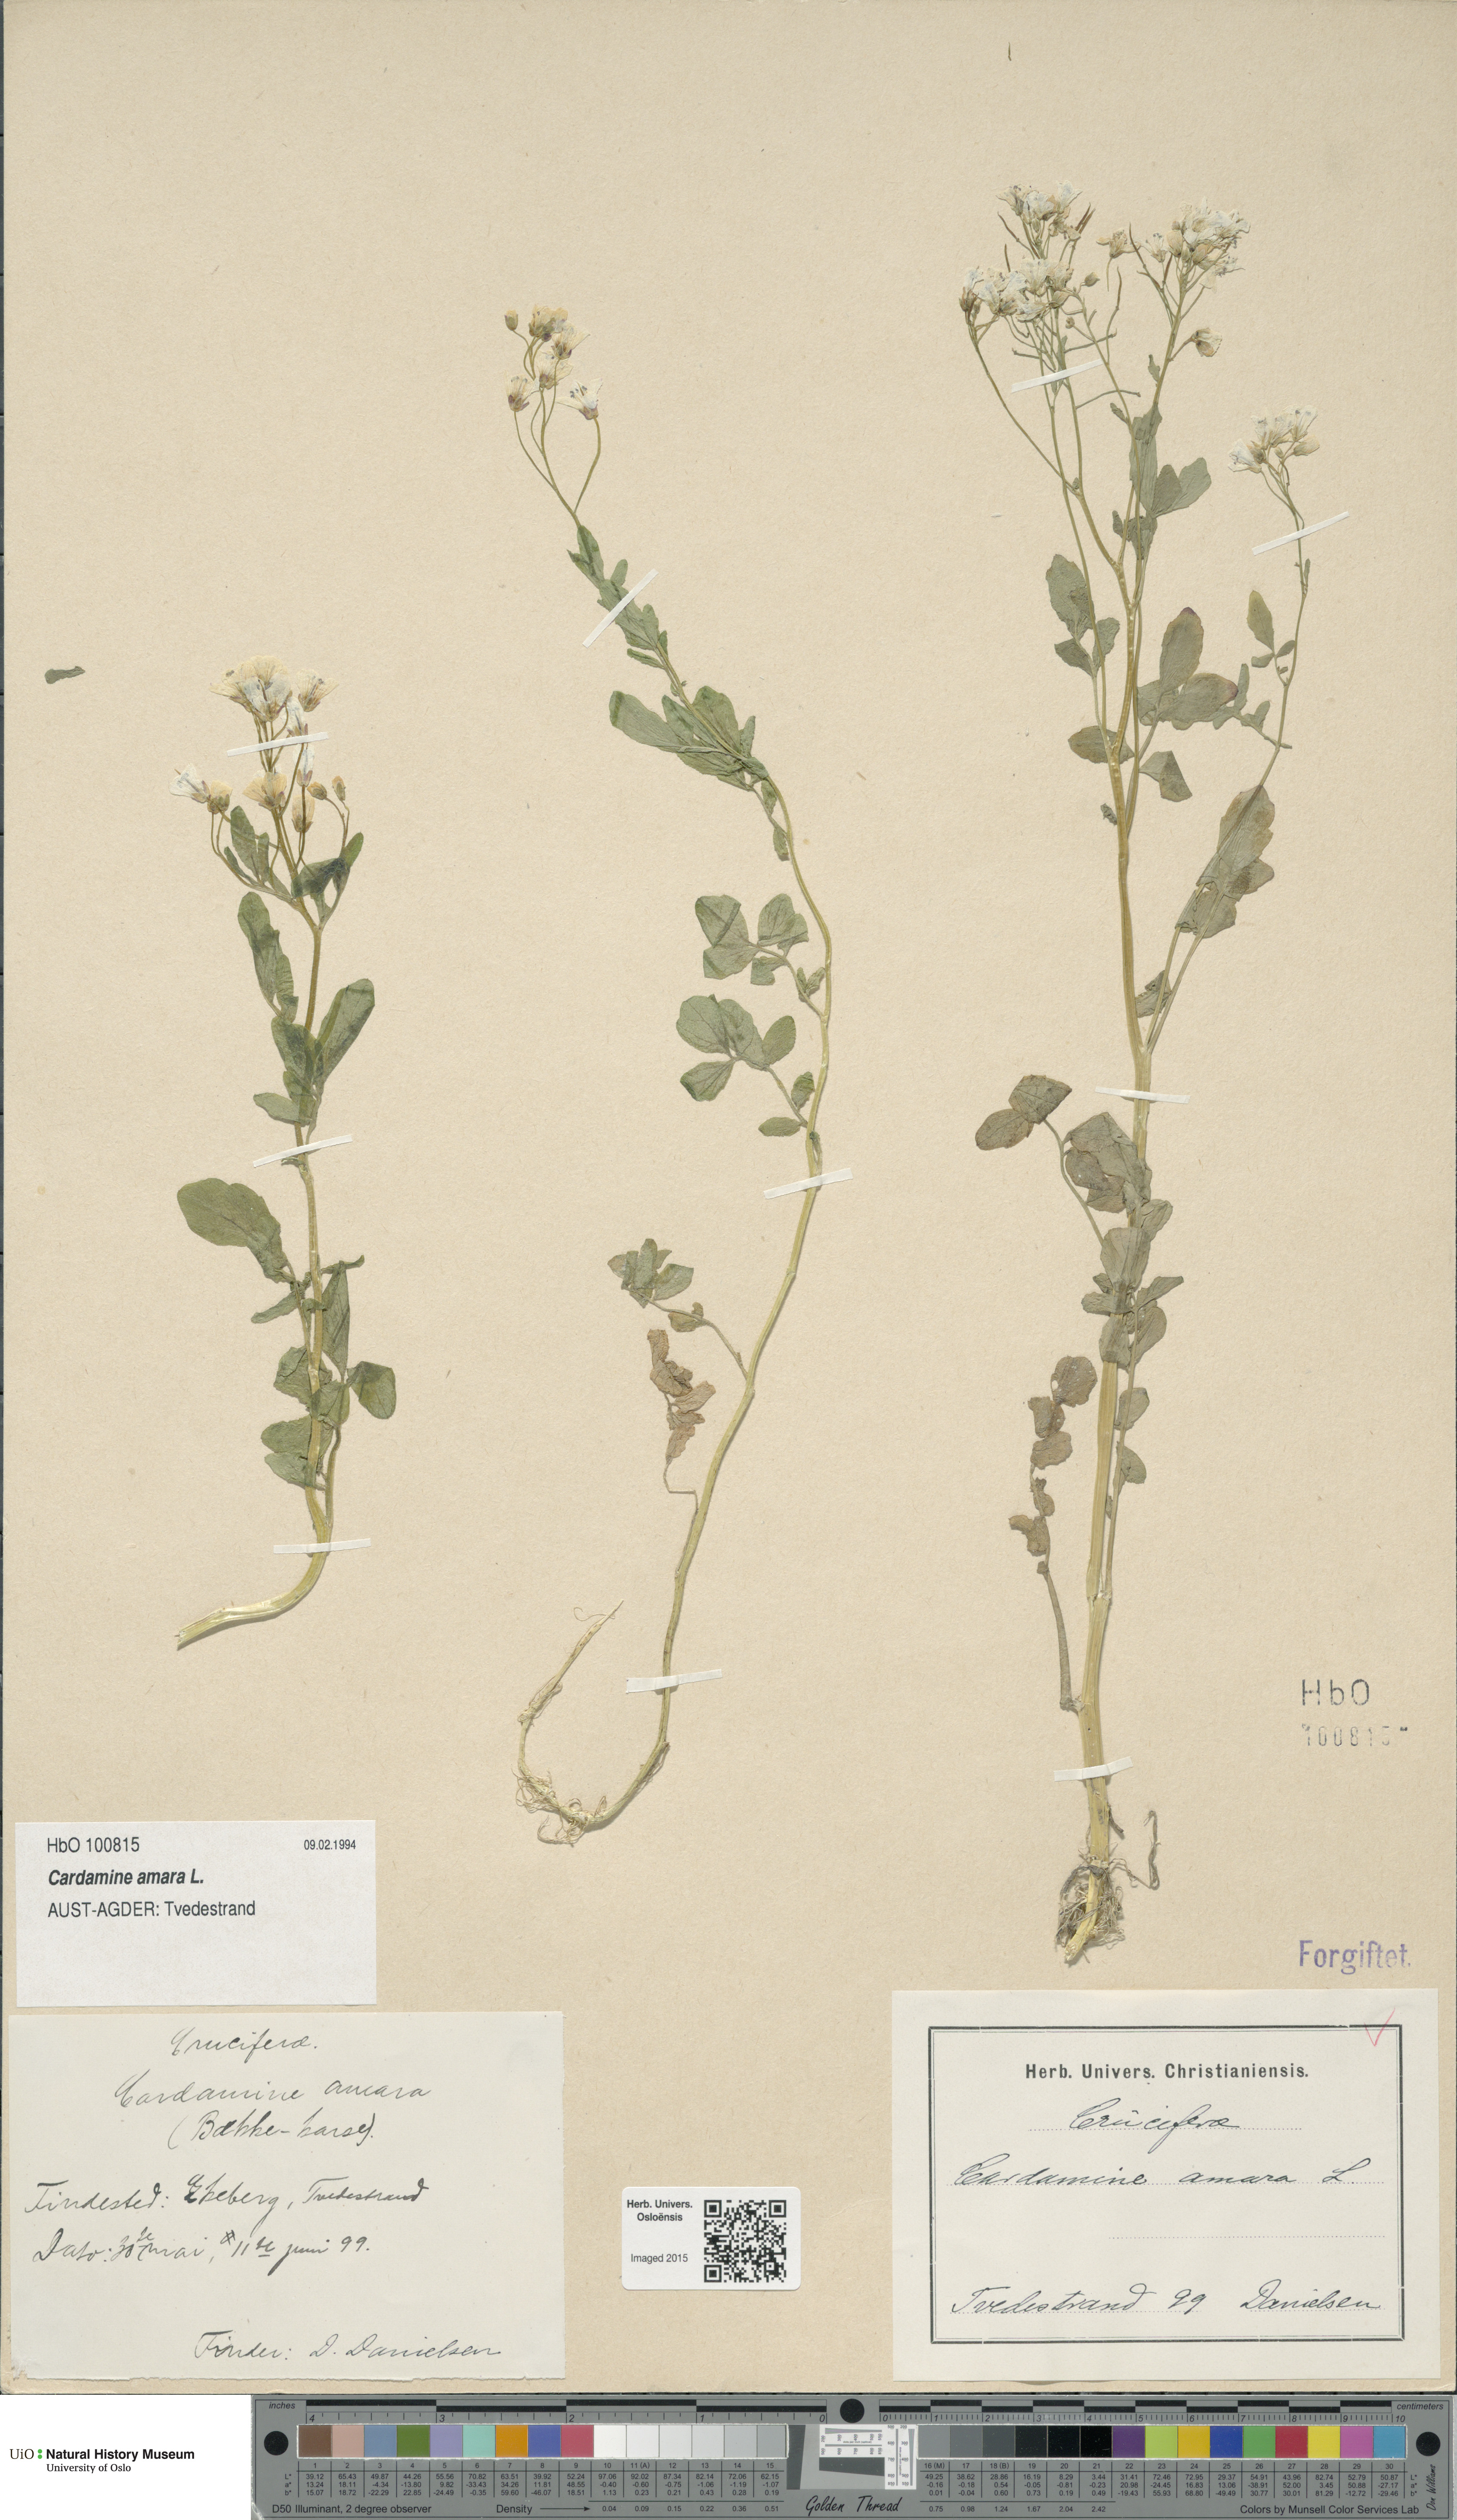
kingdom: Plantae
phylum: Tracheophyta
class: Magnoliopsida
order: Brassicales
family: Brassicaceae
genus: Cardamine
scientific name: Cardamine amara
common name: Large bitter-cress
